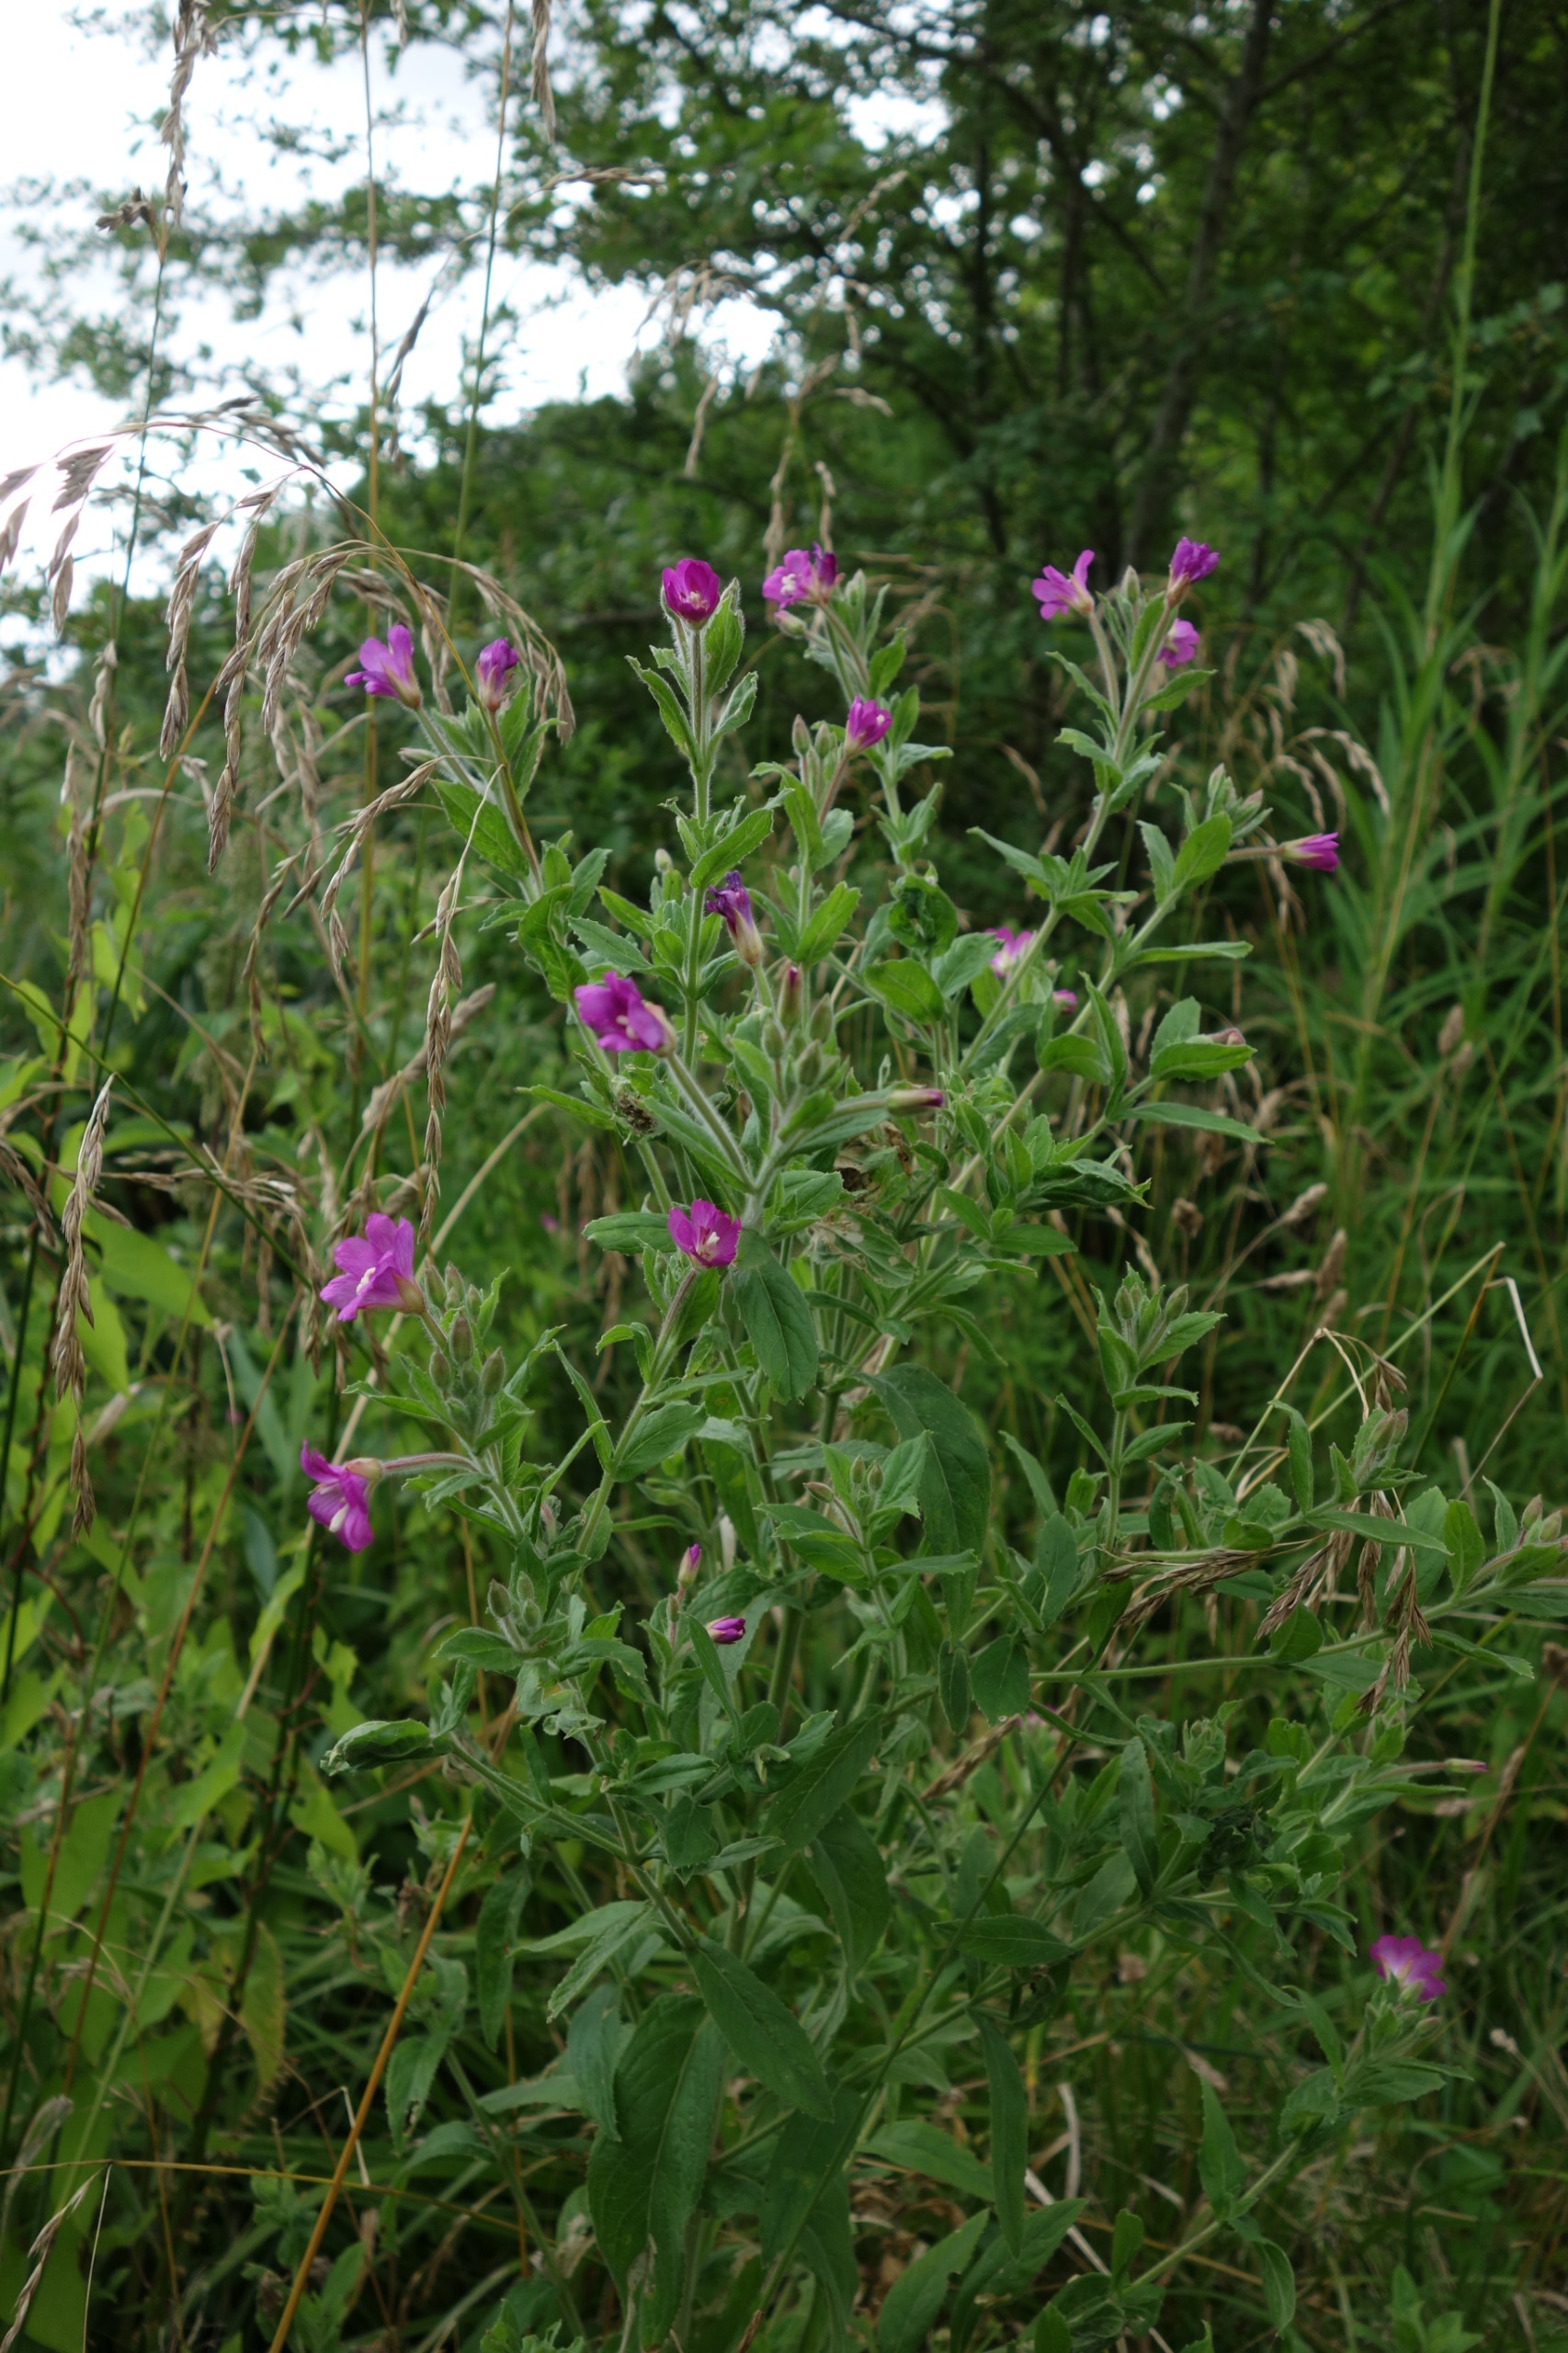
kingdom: Plantae
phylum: Tracheophyta
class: Magnoliopsida
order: Myrtales
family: Onagraceae
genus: Epilobium
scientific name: Epilobium hirsutum
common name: Lådden dueurt
